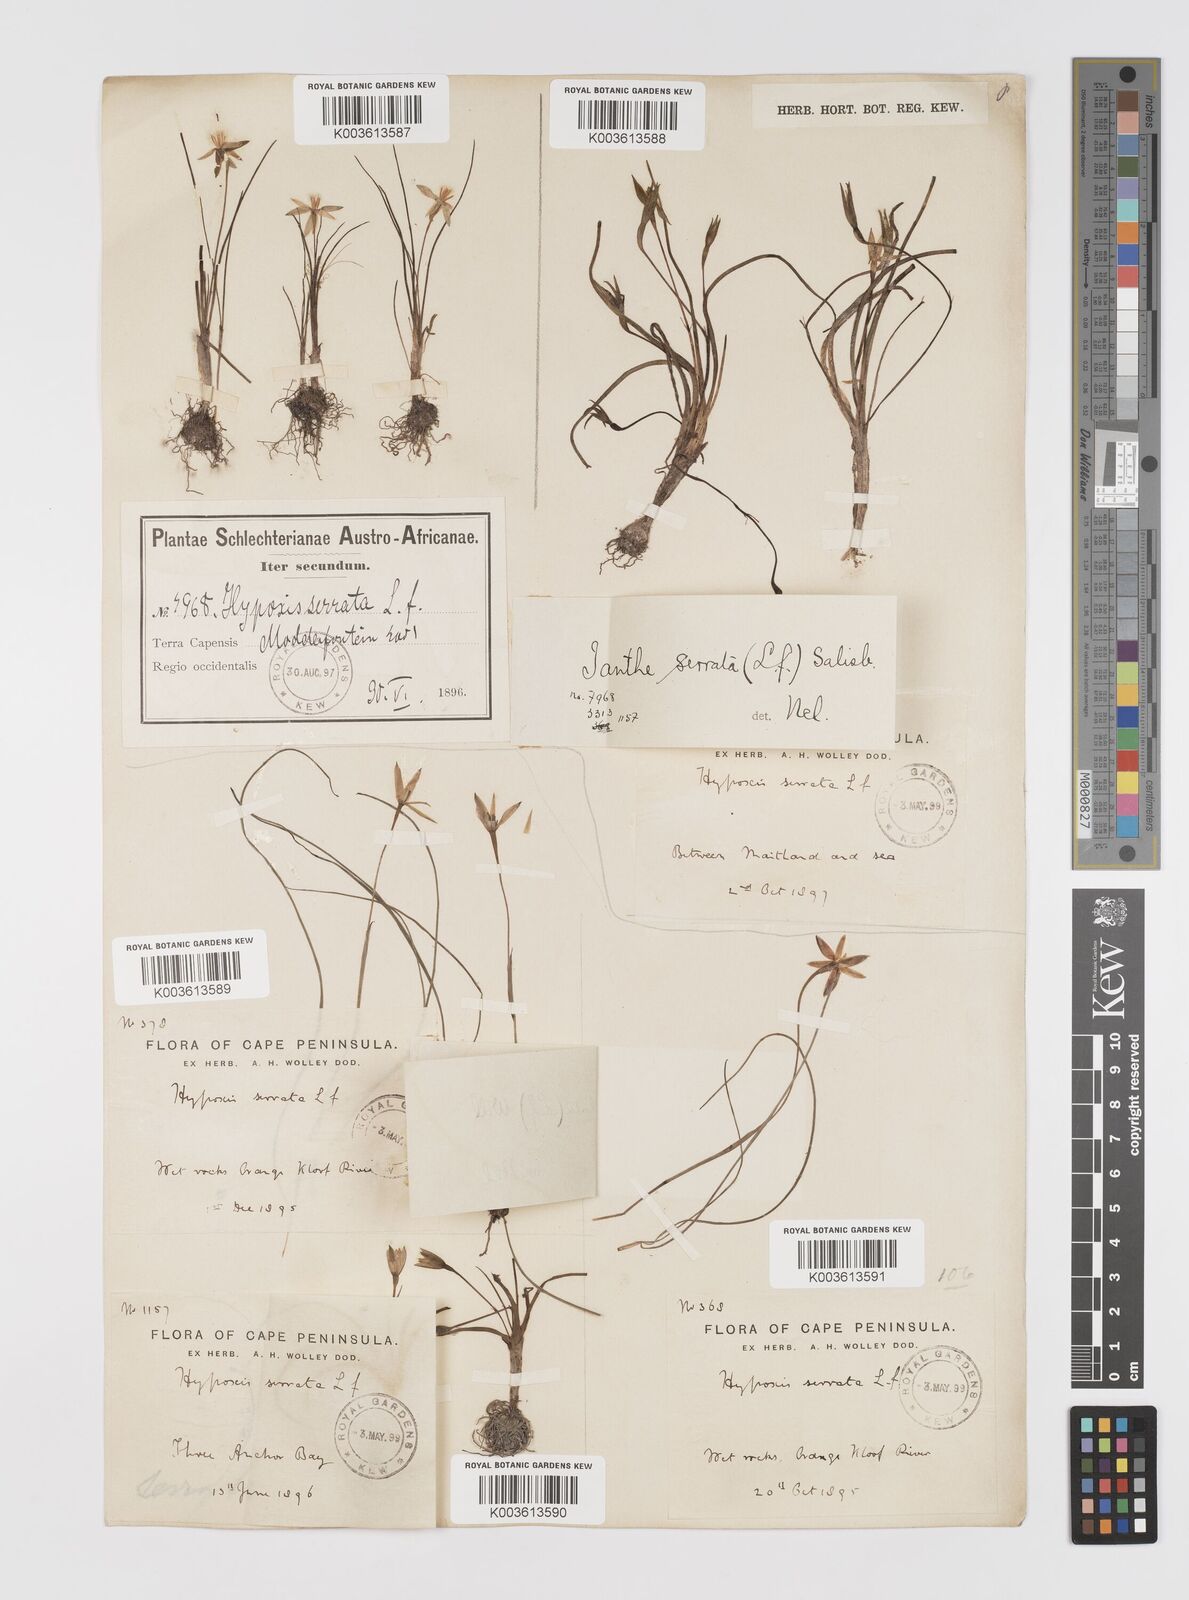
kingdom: Plantae
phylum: Tracheophyta
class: Liliopsida
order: Asparagales
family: Hypoxidaceae
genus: Pauridia
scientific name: Pauridia serrata
